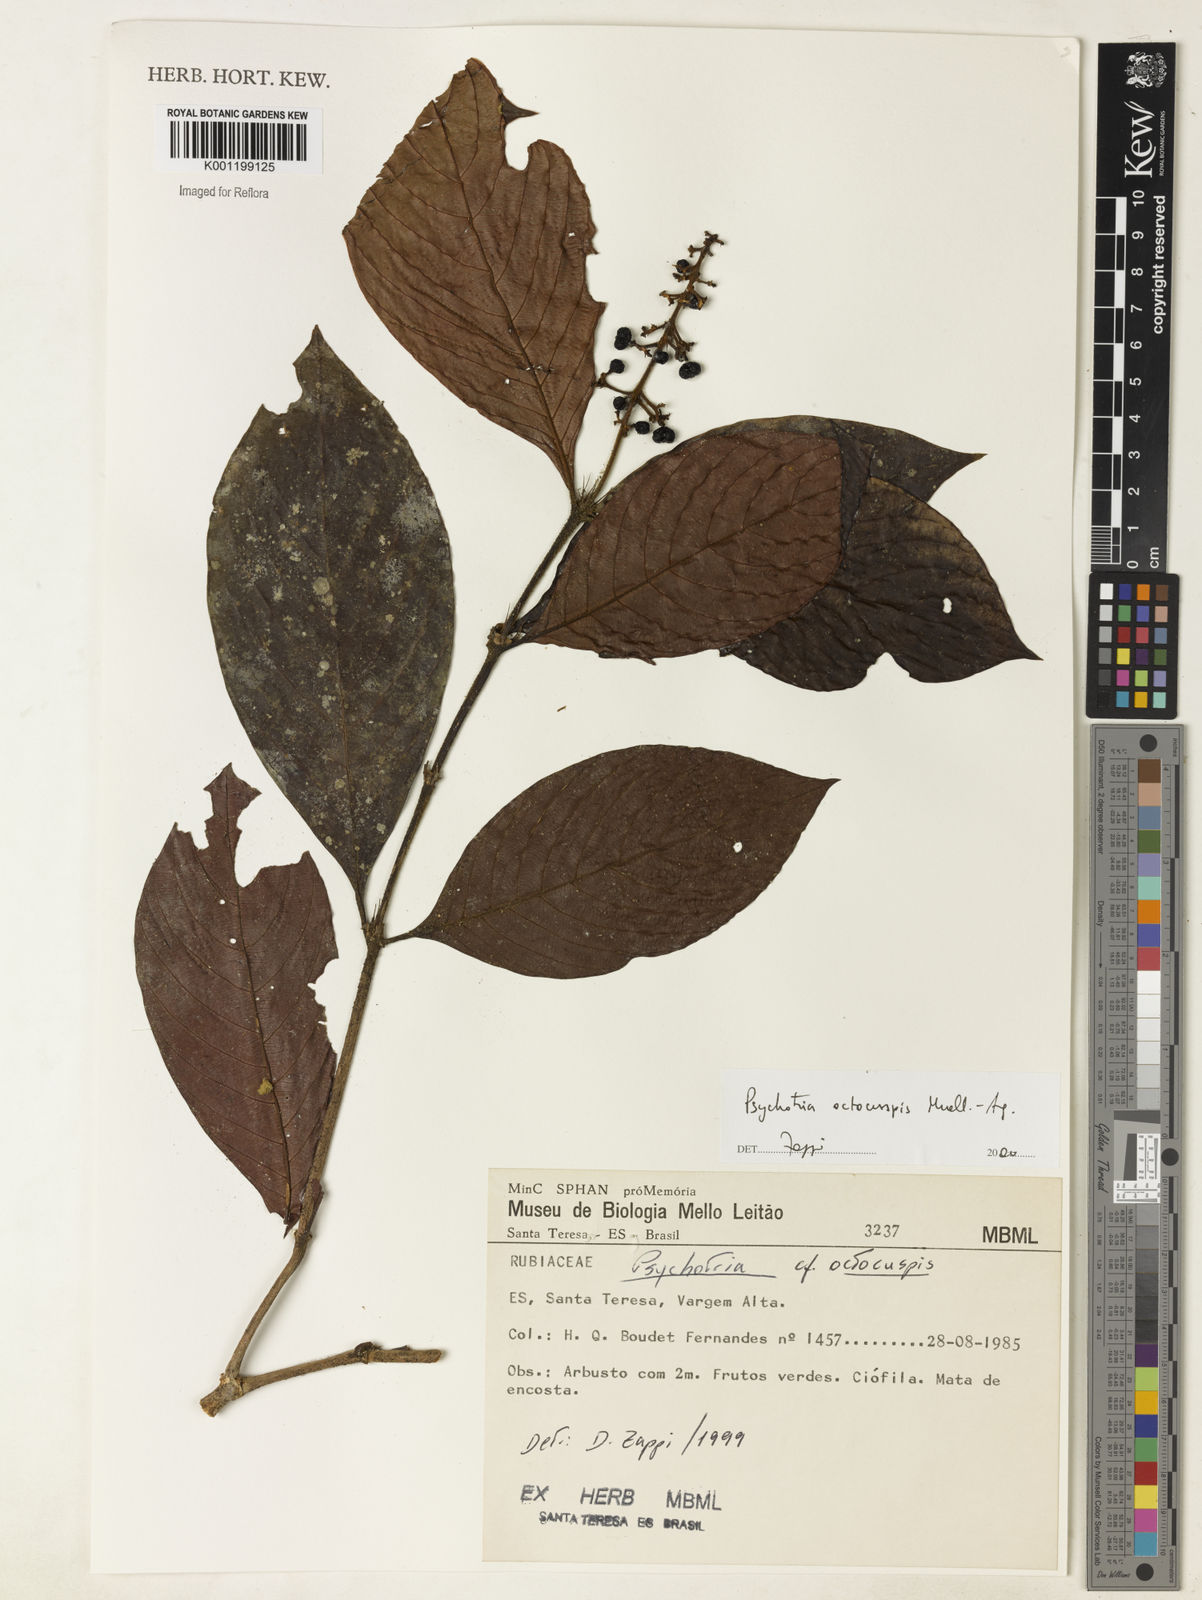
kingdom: Plantae
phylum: Tracheophyta
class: Magnoliopsida
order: Gentianales
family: Rubiaceae
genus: Psychotria
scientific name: Psychotria
